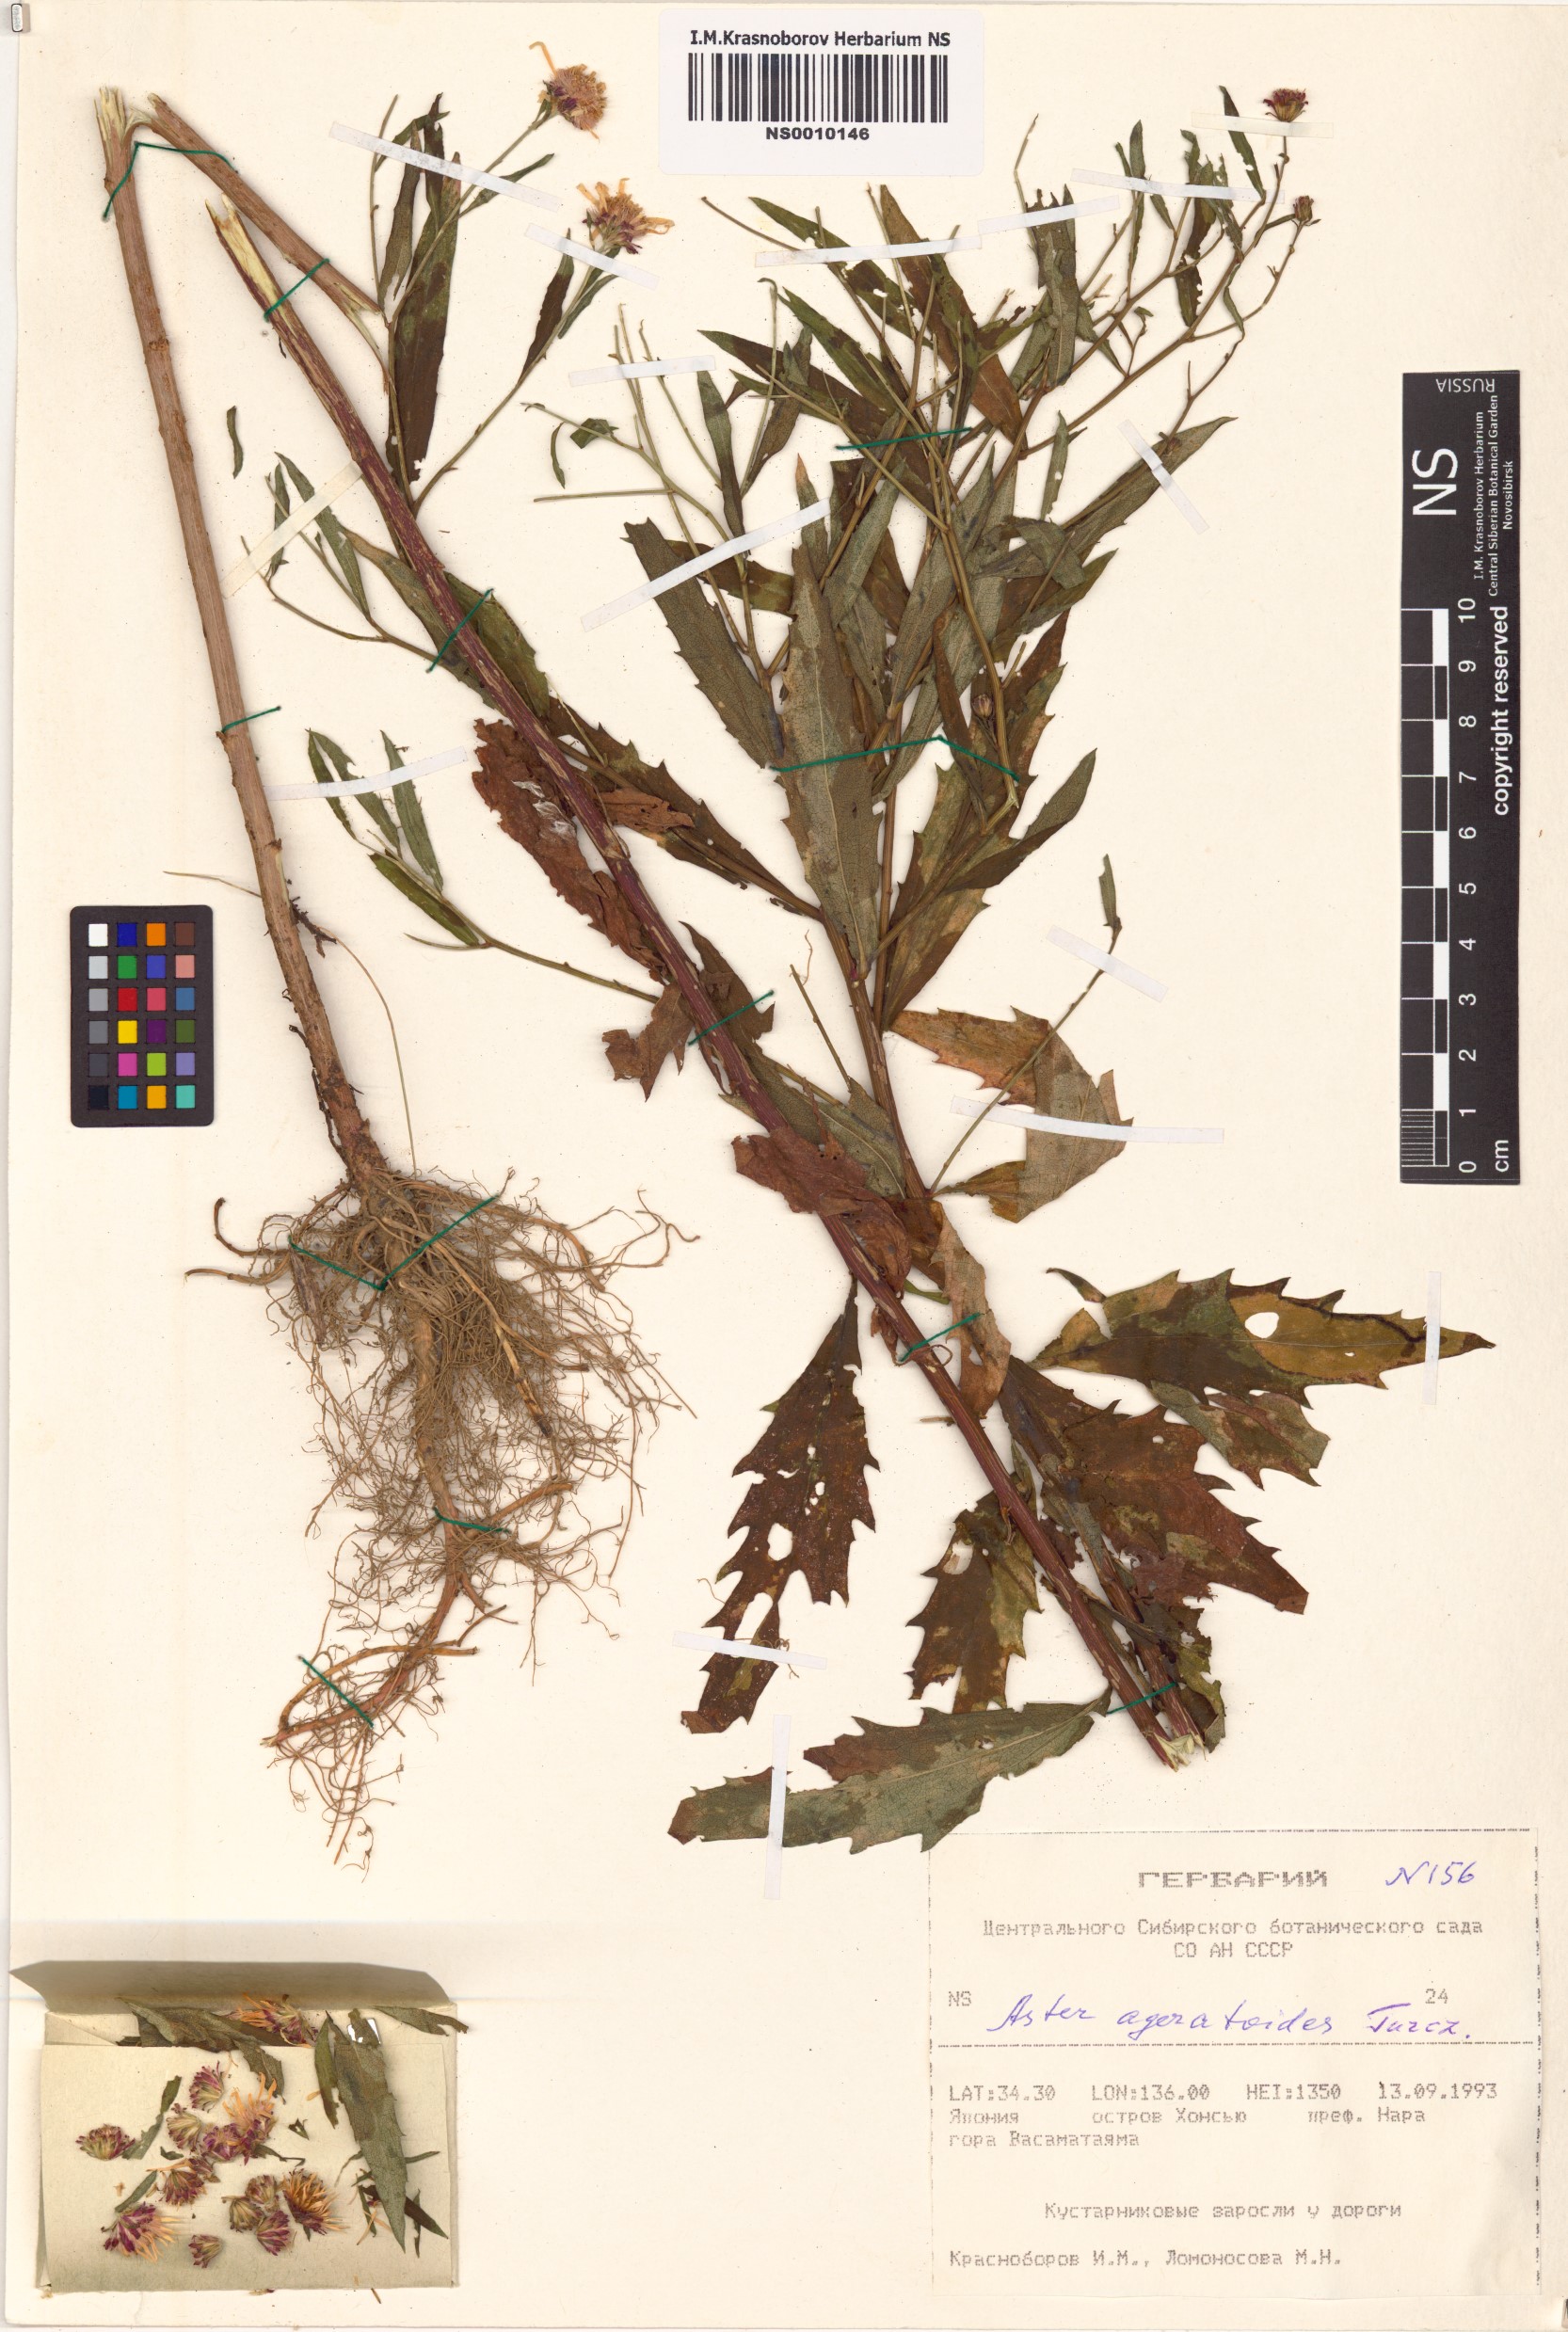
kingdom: Plantae
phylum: Tracheophyta
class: Magnoliopsida
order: Asterales
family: Asteraceae
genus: Aster
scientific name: Aster ageratoides
